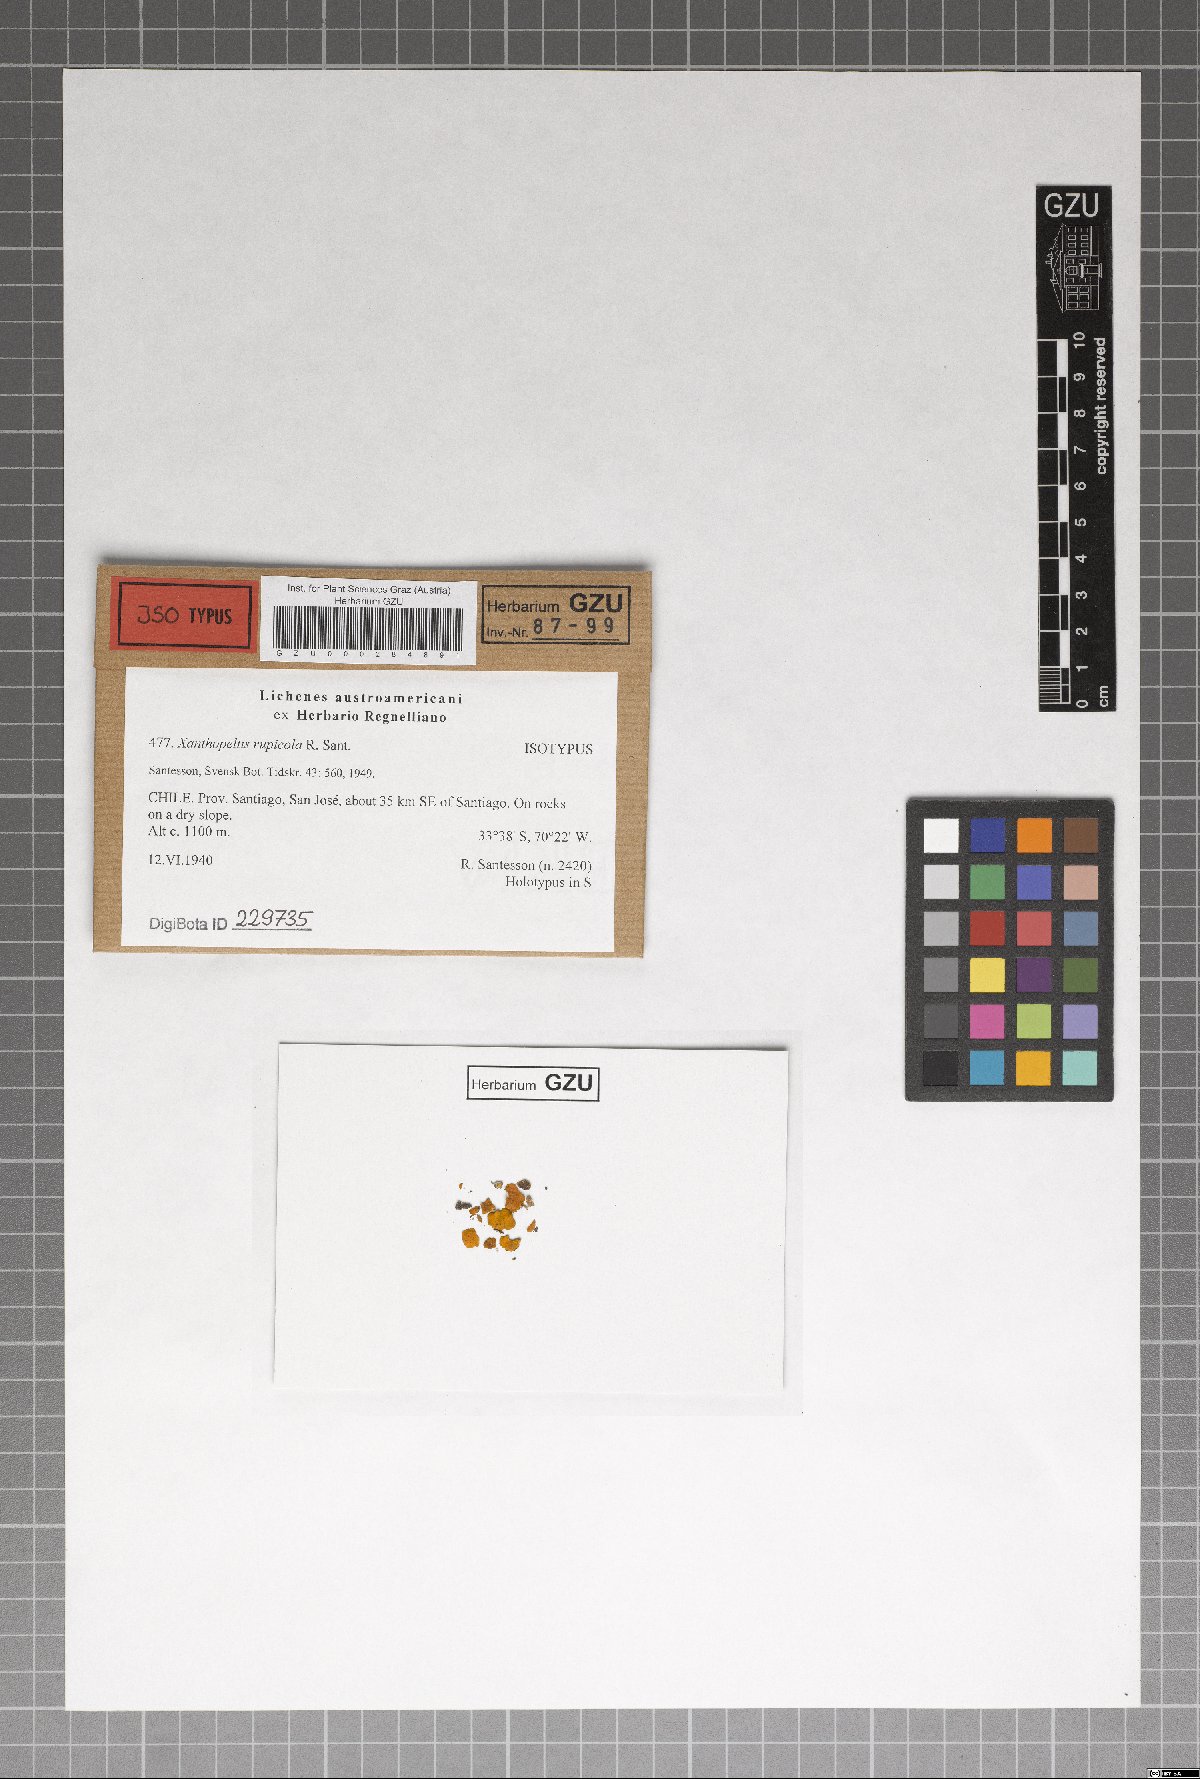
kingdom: Fungi
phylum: Ascomycota
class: Lecanoromycetes
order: Teloschistales
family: Teloschistaceae
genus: Xanthopeltis
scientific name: Xanthopeltis rupicola
